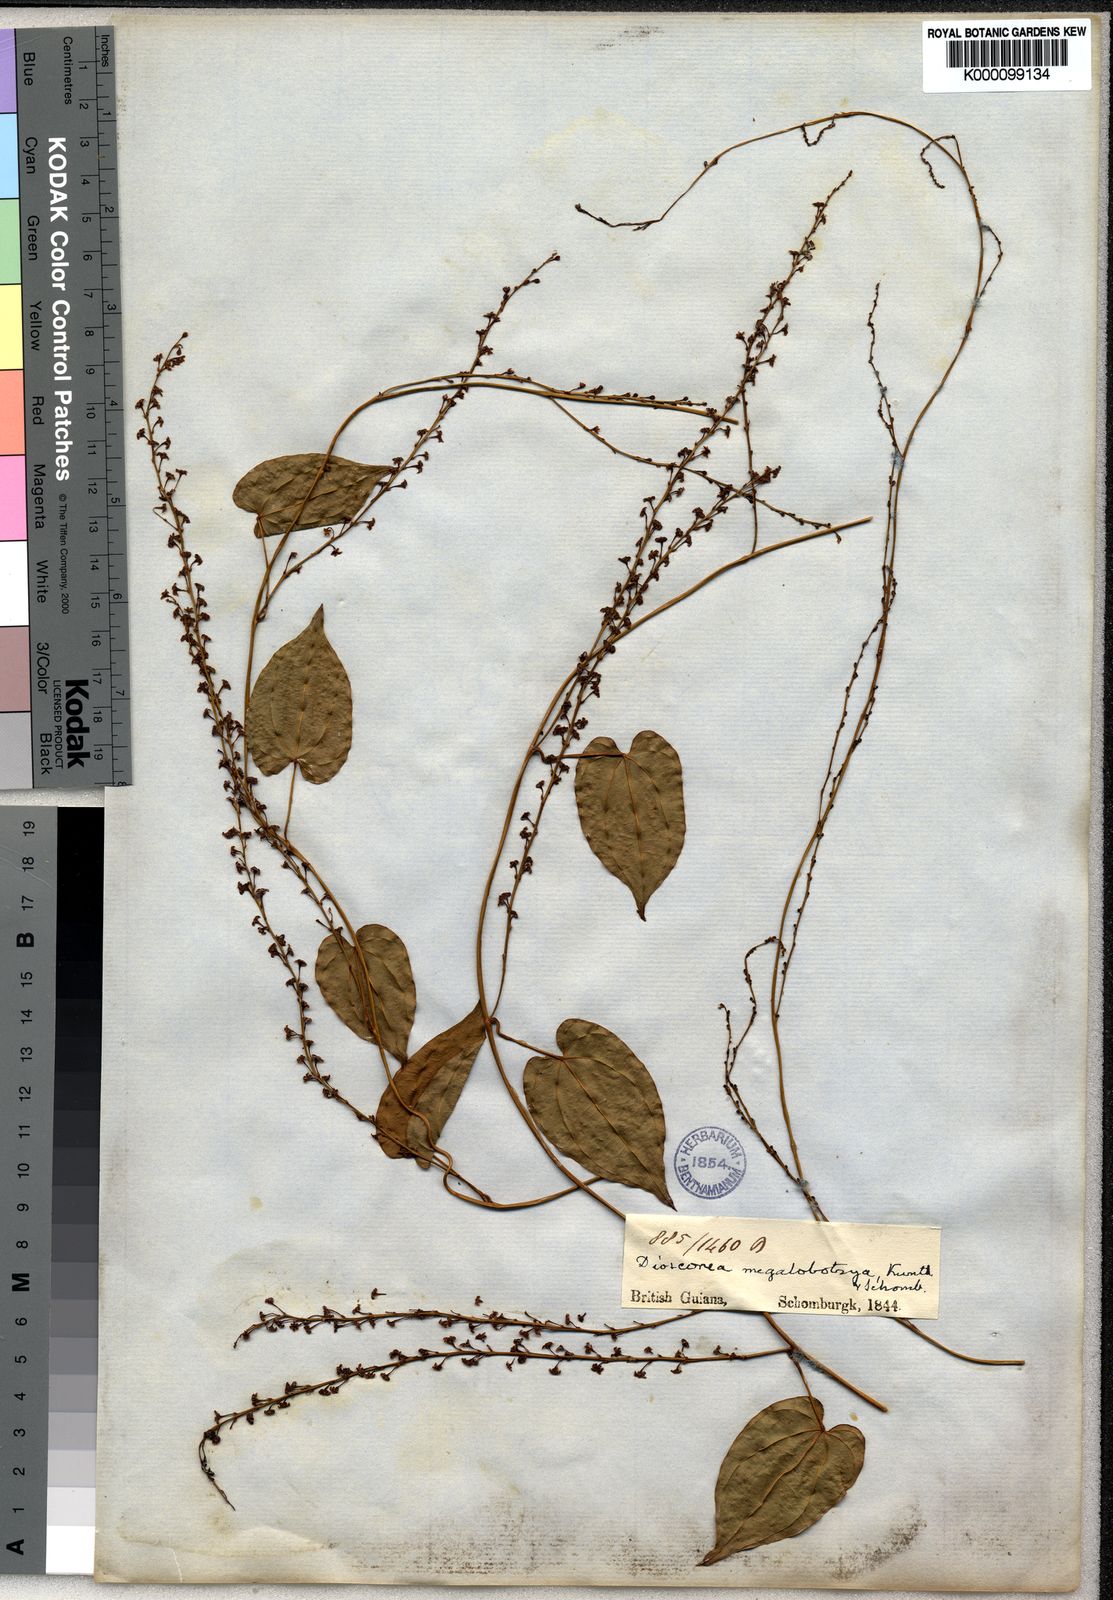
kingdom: Plantae
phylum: Tracheophyta
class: Liliopsida
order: Dioscoreales
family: Dioscoreaceae
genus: Dioscorea
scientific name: Dioscorea amazonum
